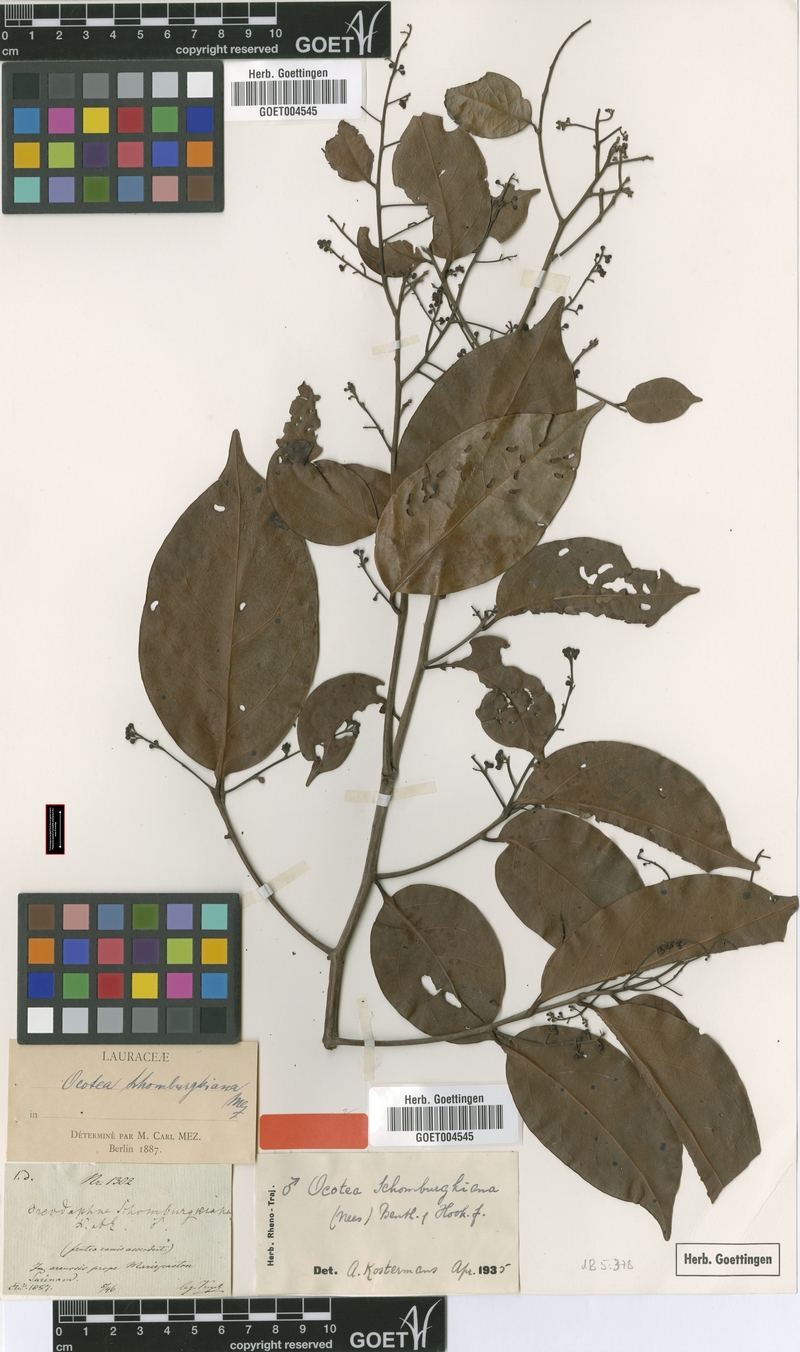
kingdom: Plantae
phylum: Tracheophyta
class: Magnoliopsida
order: Laurales
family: Lauraceae
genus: Ocotea
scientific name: Ocotea schomburgkiana
